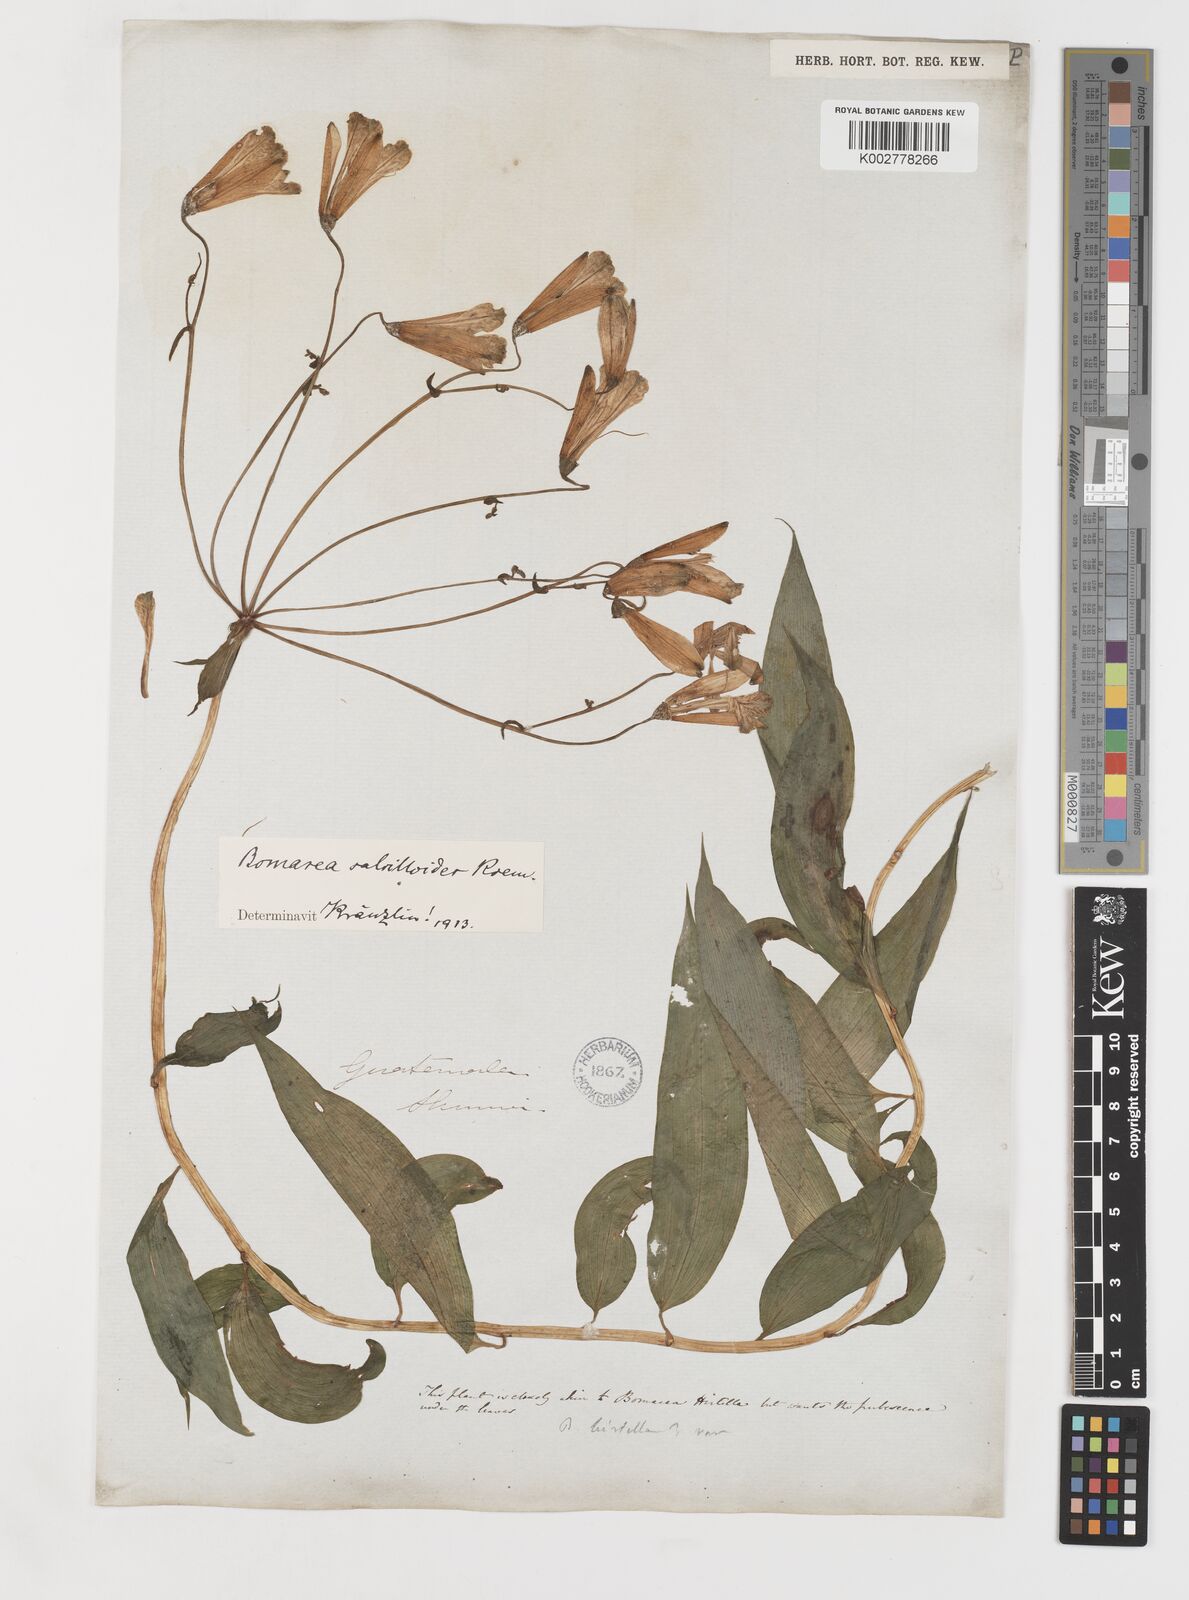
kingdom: Plantae
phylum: Tracheophyta
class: Liliopsida
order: Liliales
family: Alstroemeriaceae
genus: Bomarea
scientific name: Bomarea edulis
